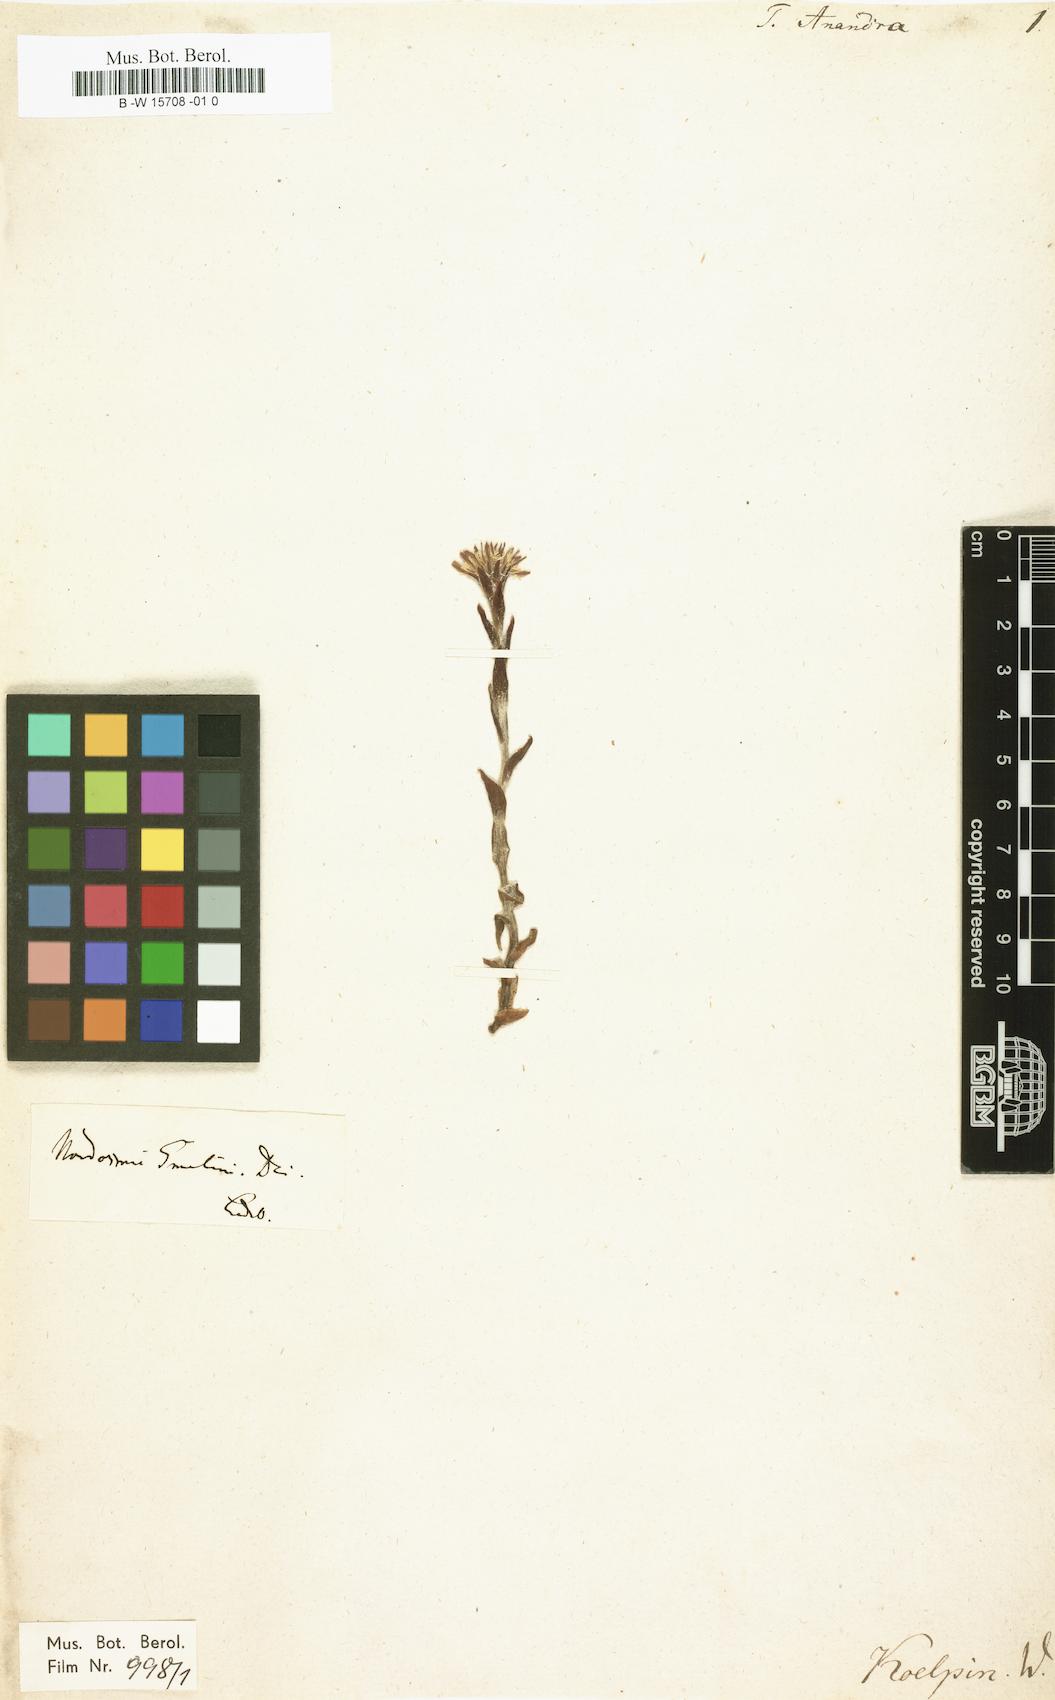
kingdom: Plantae
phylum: Tracheophyta
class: Magnoliopsida
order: Asterales
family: Asteraceae
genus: Leibnitzia
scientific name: Leibnitzia anandria
